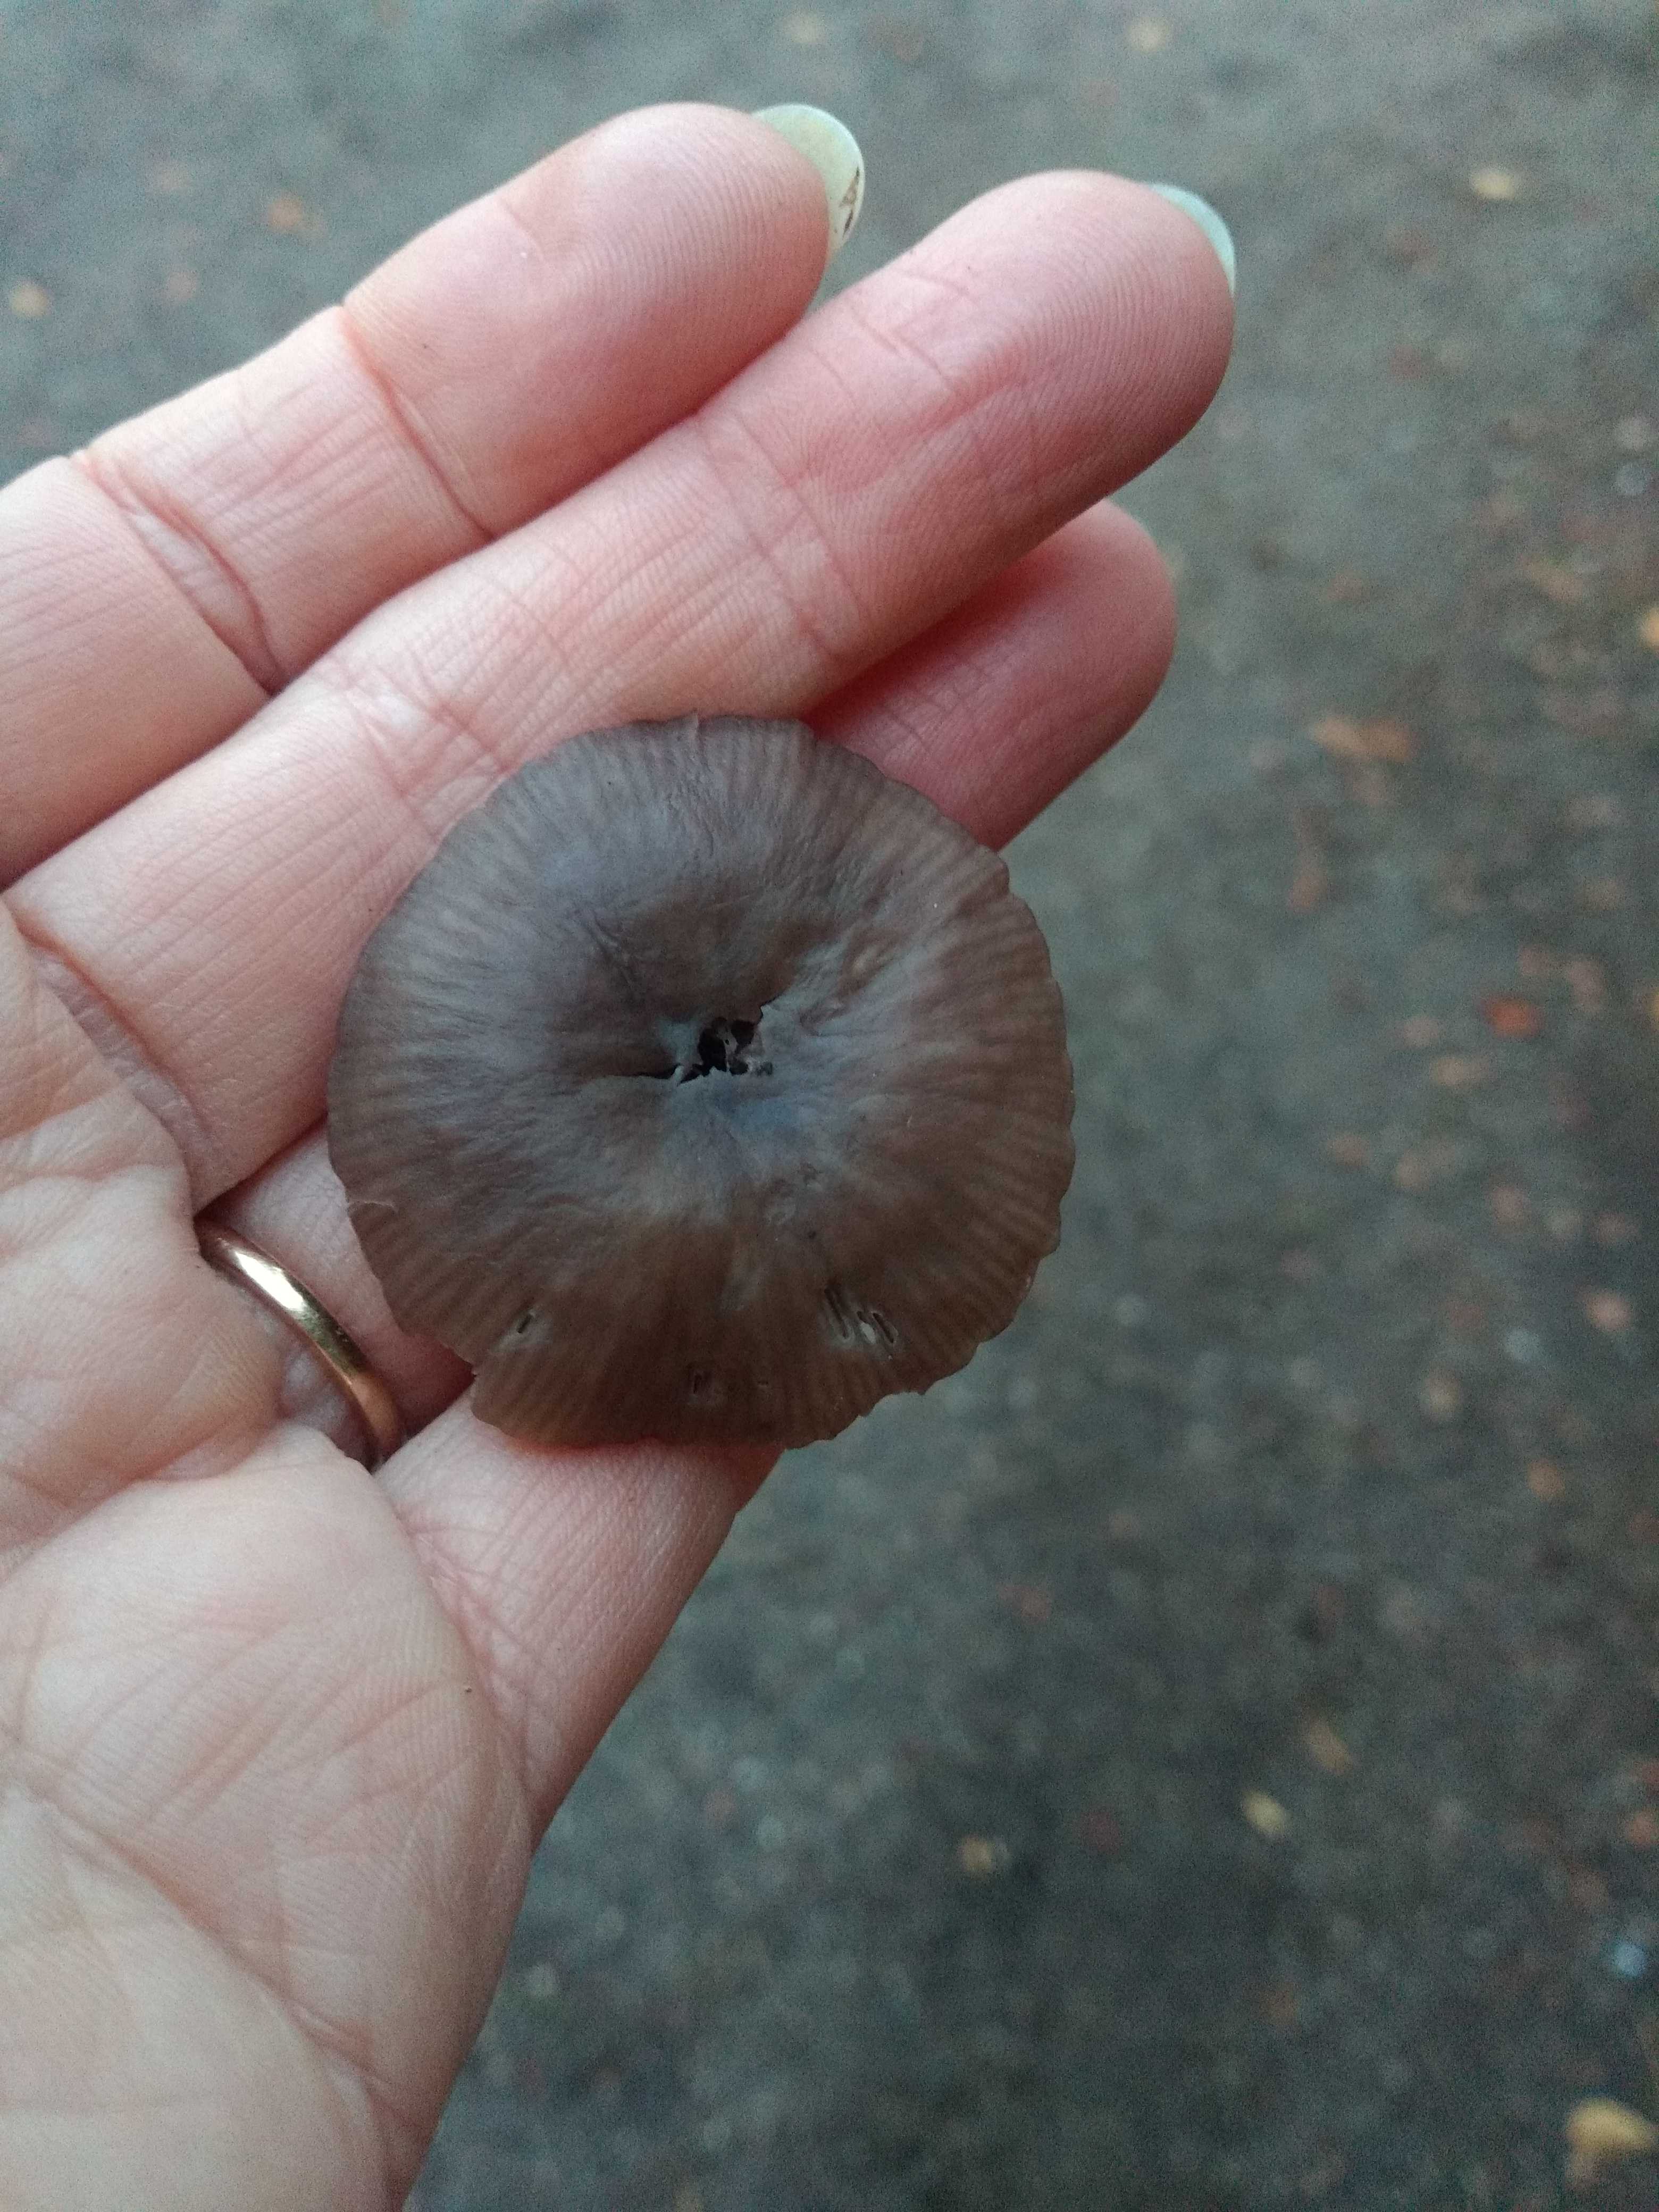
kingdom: Fungi
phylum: Basidiomycota
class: Agaricomycetes
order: Agaricales
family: Marasmiaceae
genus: Marasmius
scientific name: Marasmius wynneae
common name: hvælvet bruskhat
